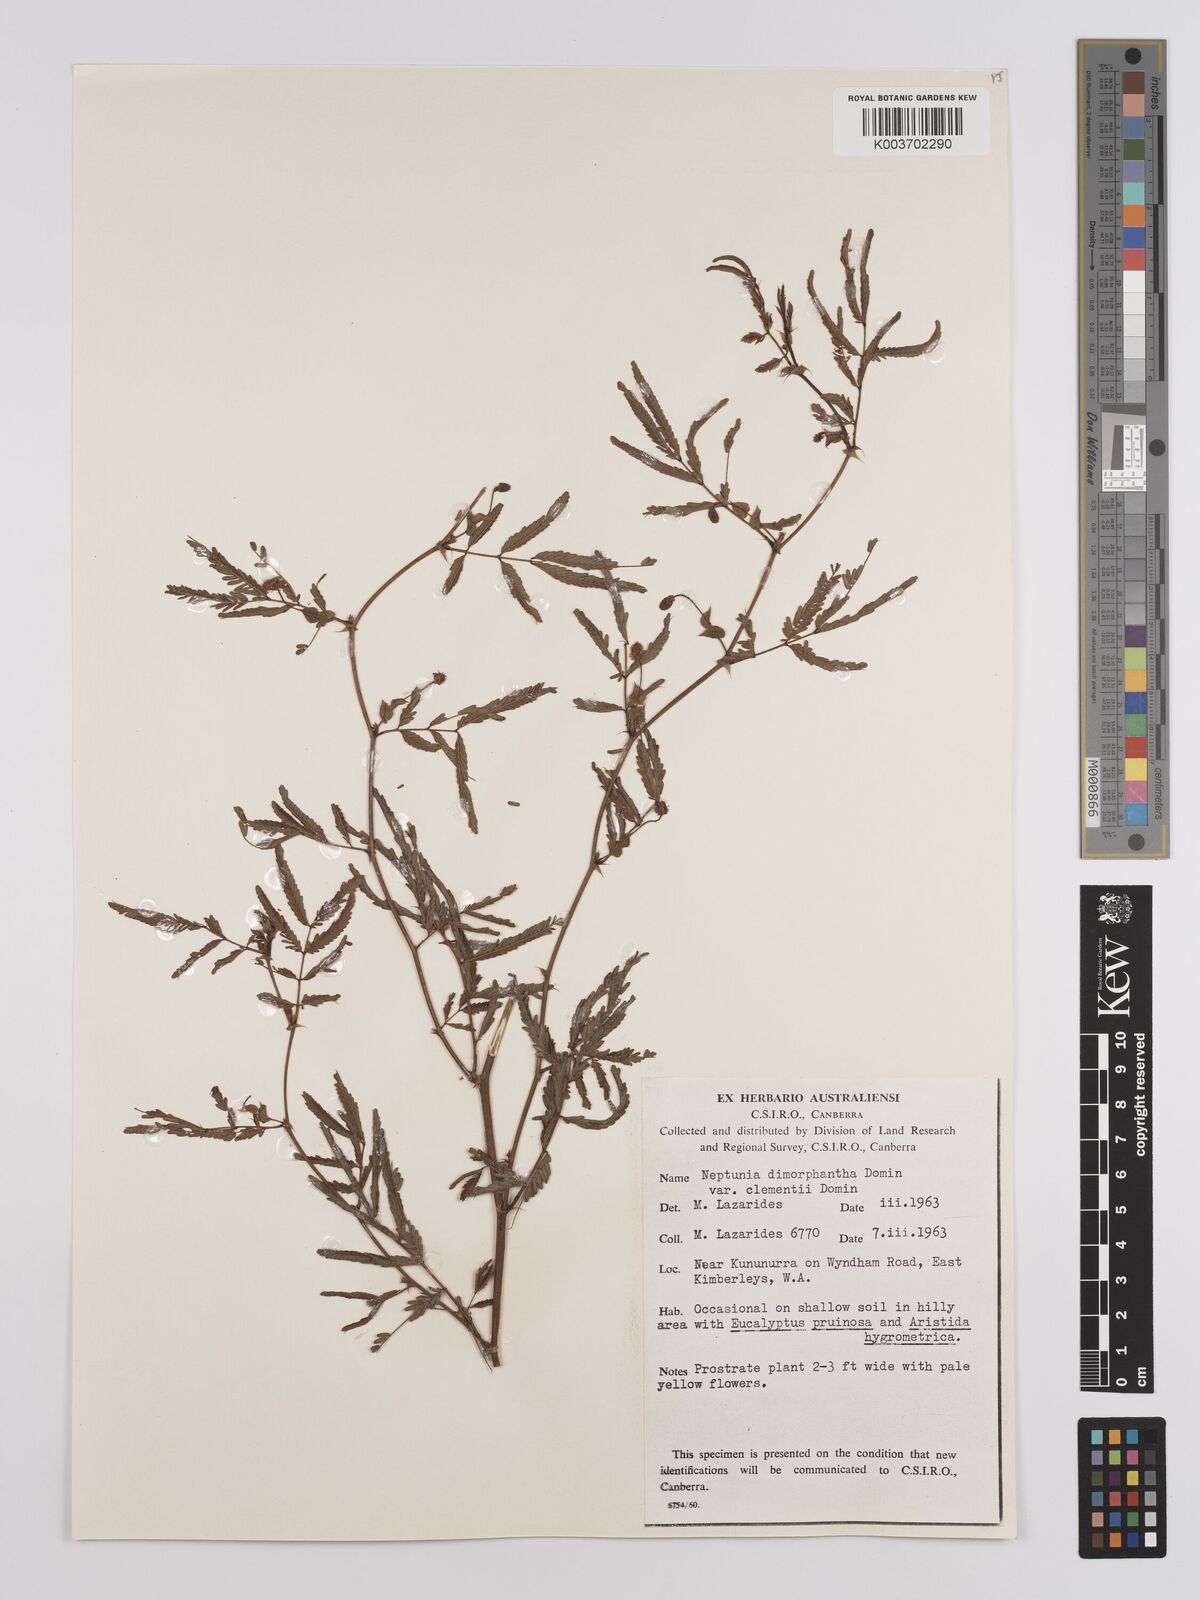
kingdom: Plantae
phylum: Tracheophyta
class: Magnoliopsida
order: Fabales
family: Fabaceae
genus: Neptunia
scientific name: Neptunia dimorphantha
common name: Sensitive-plant
